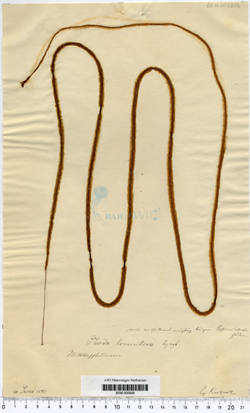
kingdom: Chromista
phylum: Ochrophyta
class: Phaeophyceae
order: Tilopteridales
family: Halosiphonaceae
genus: Halosiphon
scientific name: Halosiphon tomentosus
